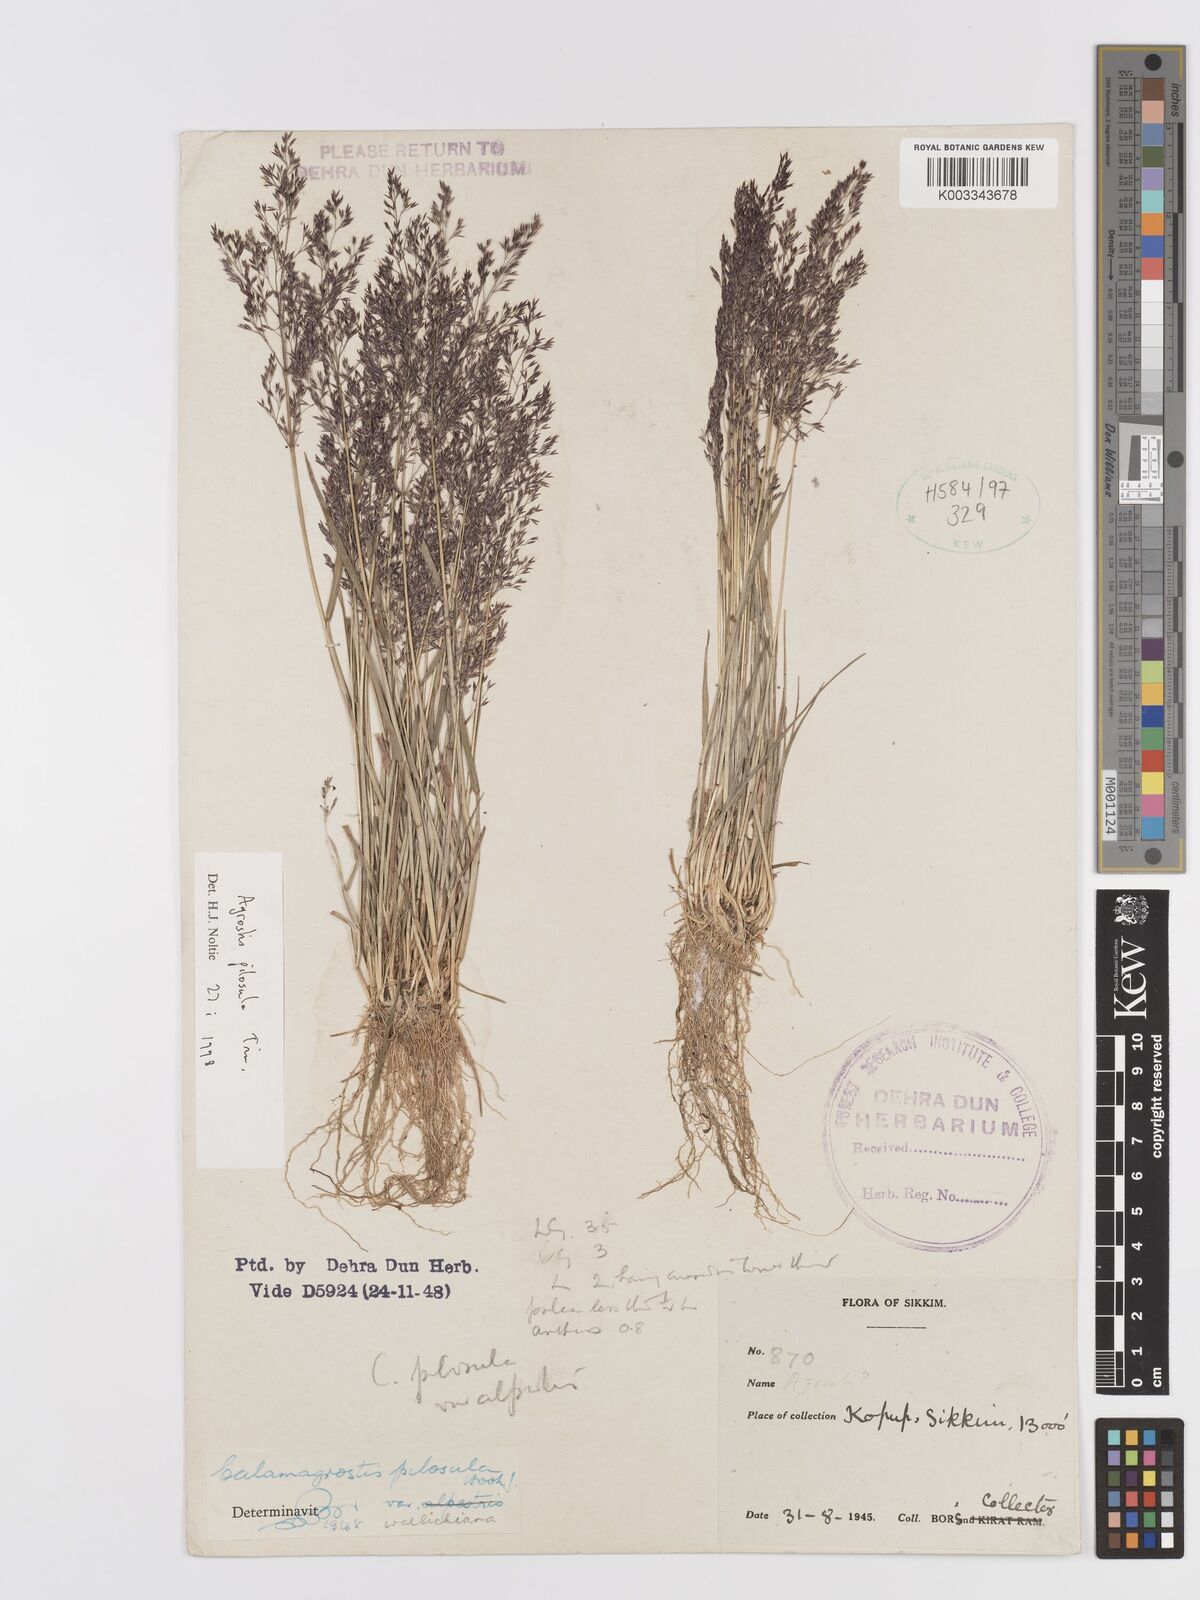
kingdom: Plantae
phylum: Tracheophyta
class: Liliopsida
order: Poales
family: Poaceae
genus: Agrostis
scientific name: Agrostis pilosula
